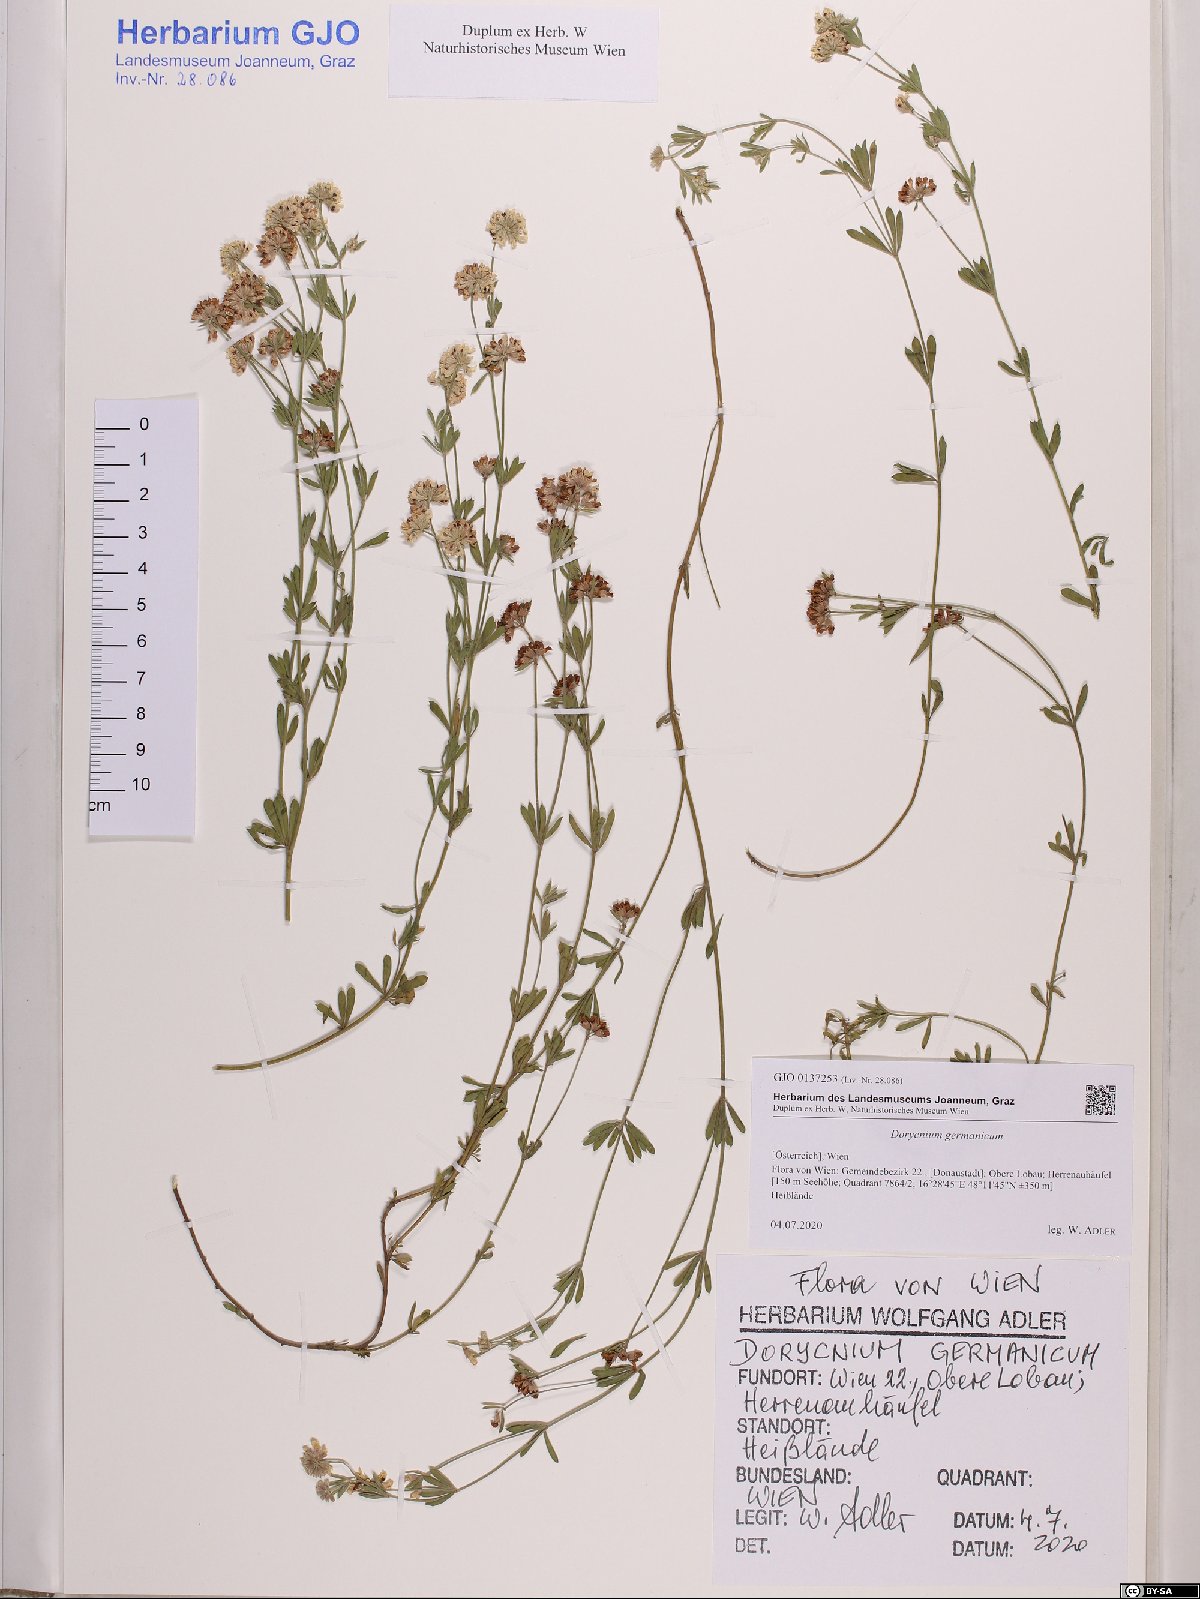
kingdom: Plantae
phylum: Tracheophyta
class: Magnoliopsida
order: Fabales
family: Fabaceae
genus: Lotus
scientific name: Lotus germanicus
